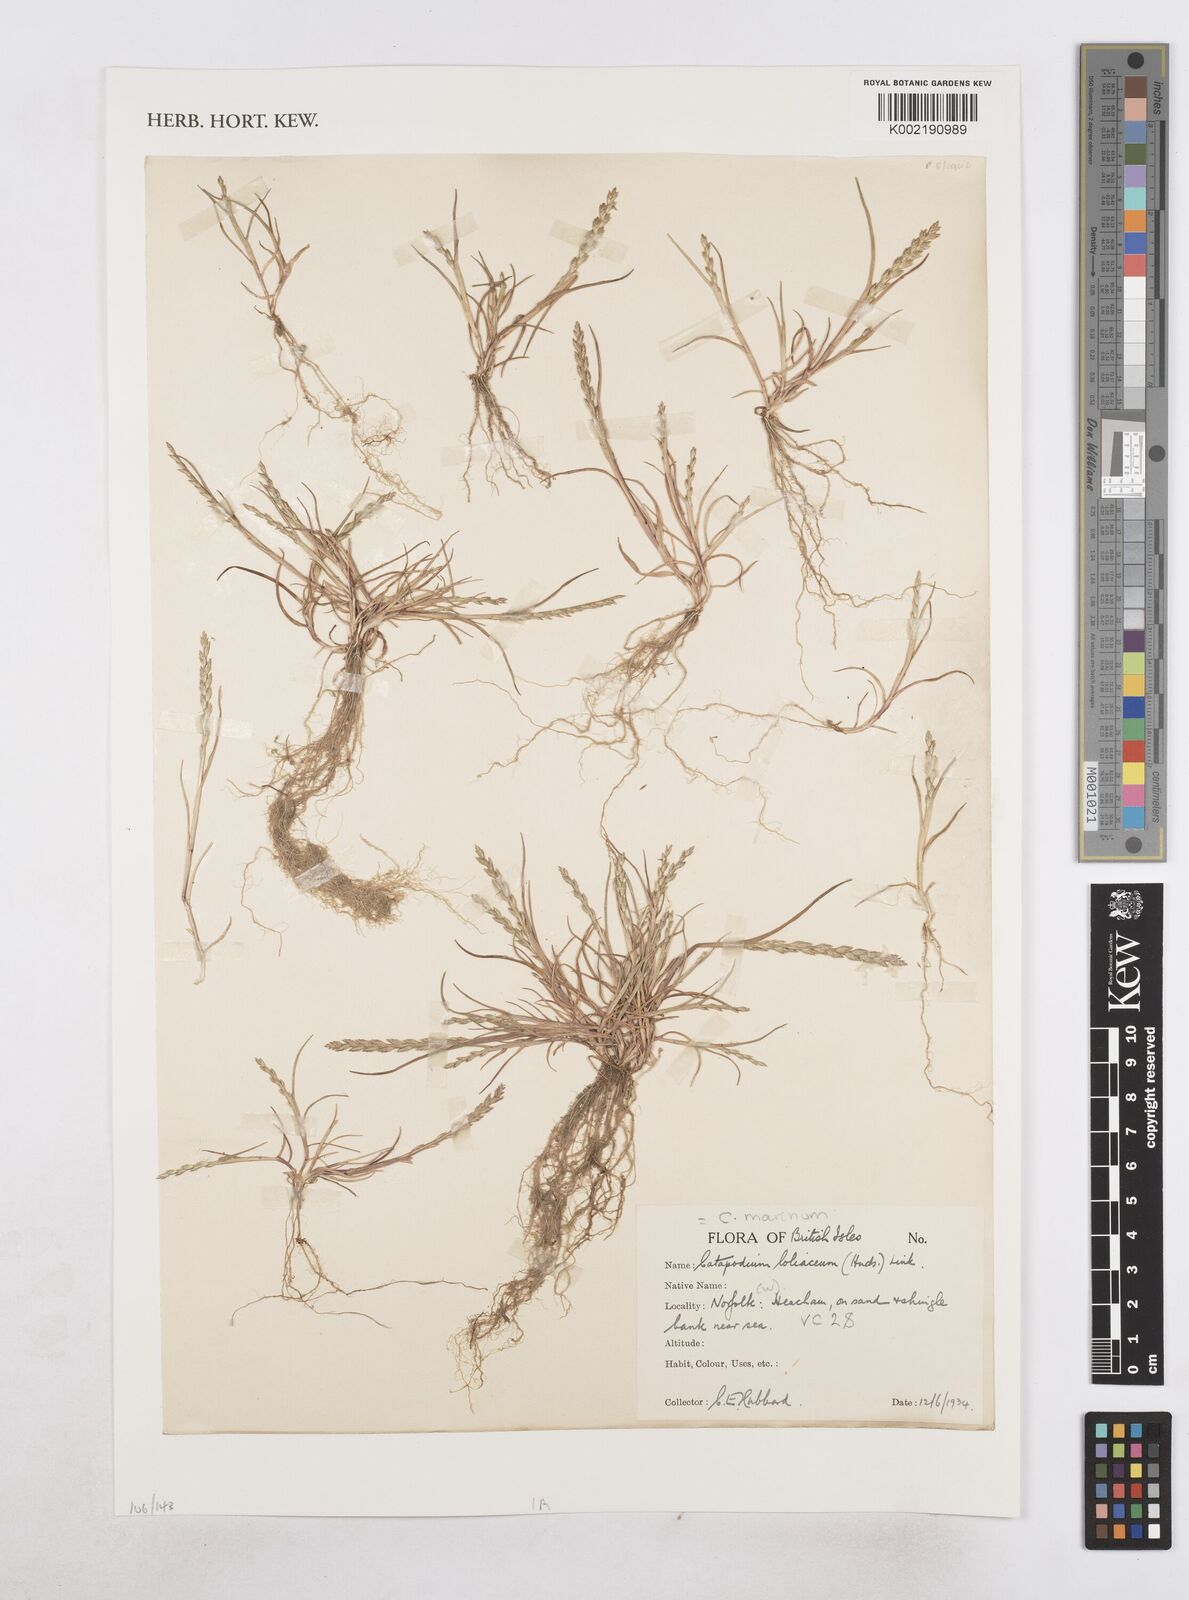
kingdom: Plantae
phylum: Tracheophyta
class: Liliopsida
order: Poales
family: Poaceae
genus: Catapodium
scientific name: Catapodium marinum
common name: Sea fern-grass
